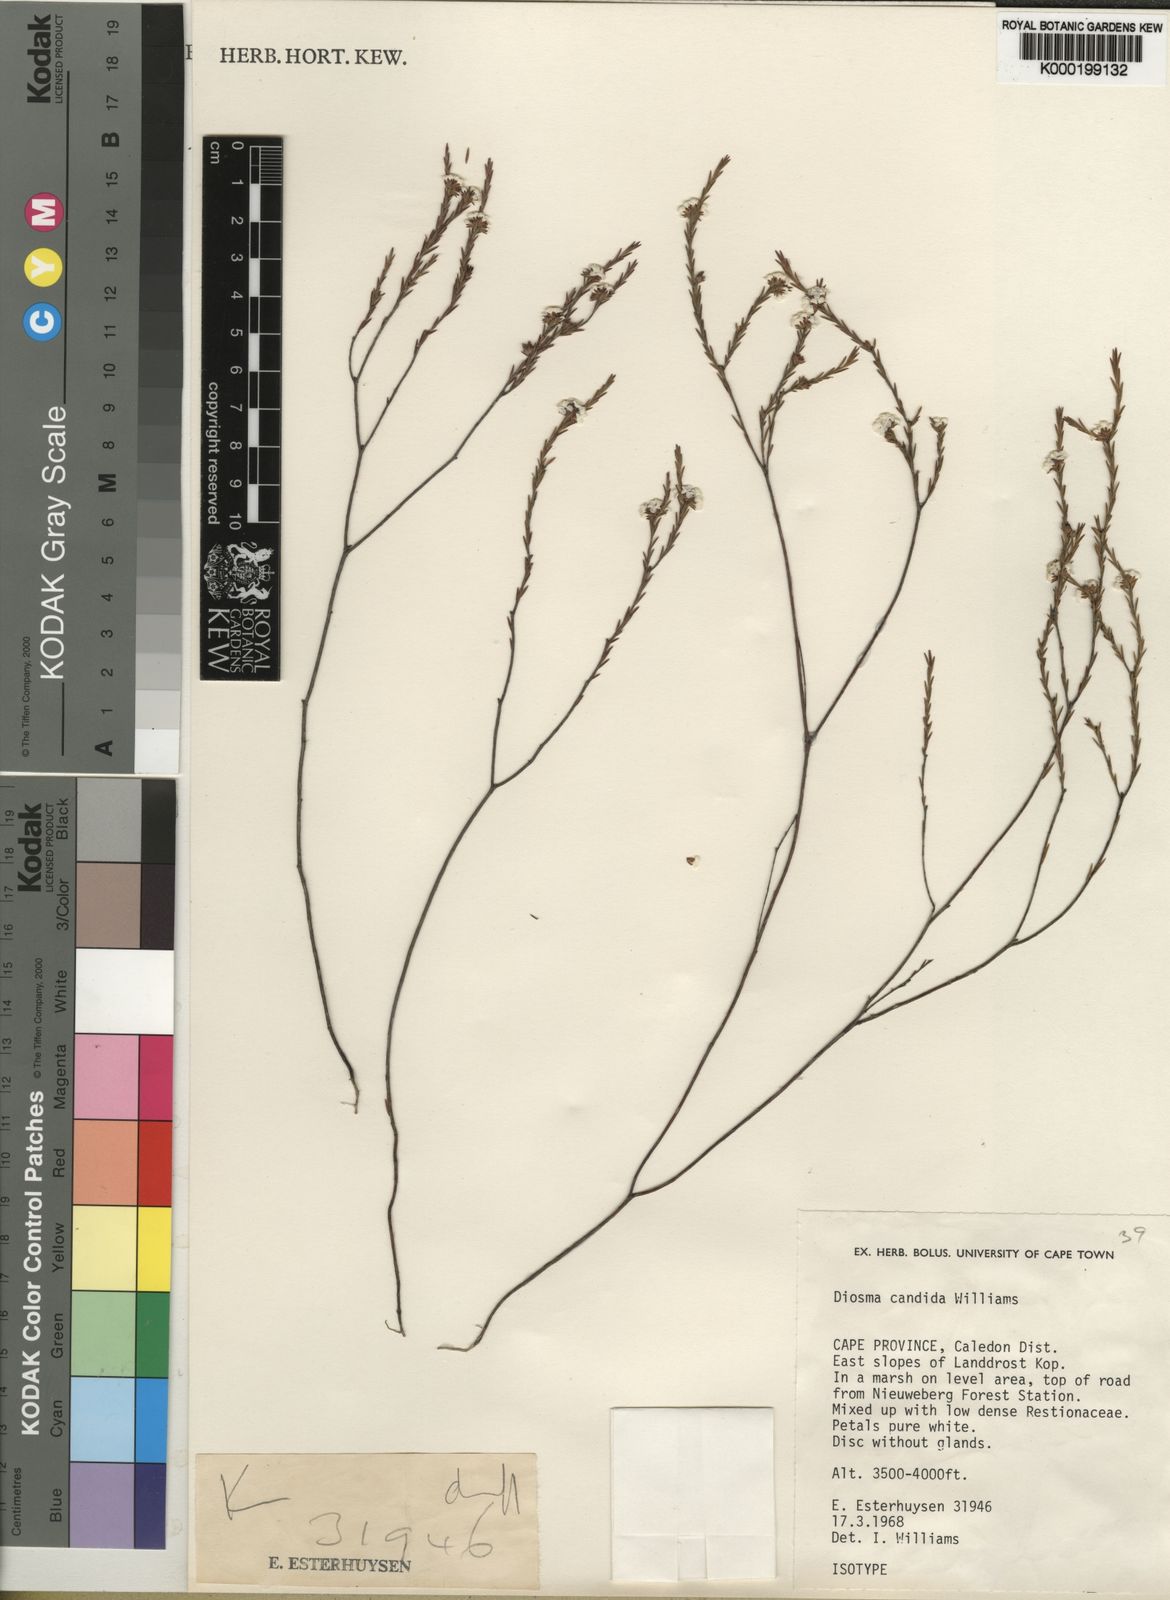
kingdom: Plantae
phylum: Tracheophyta
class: Magnoliopsida
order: Sapindales
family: Rutaceae
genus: Diosma
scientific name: Diosma
